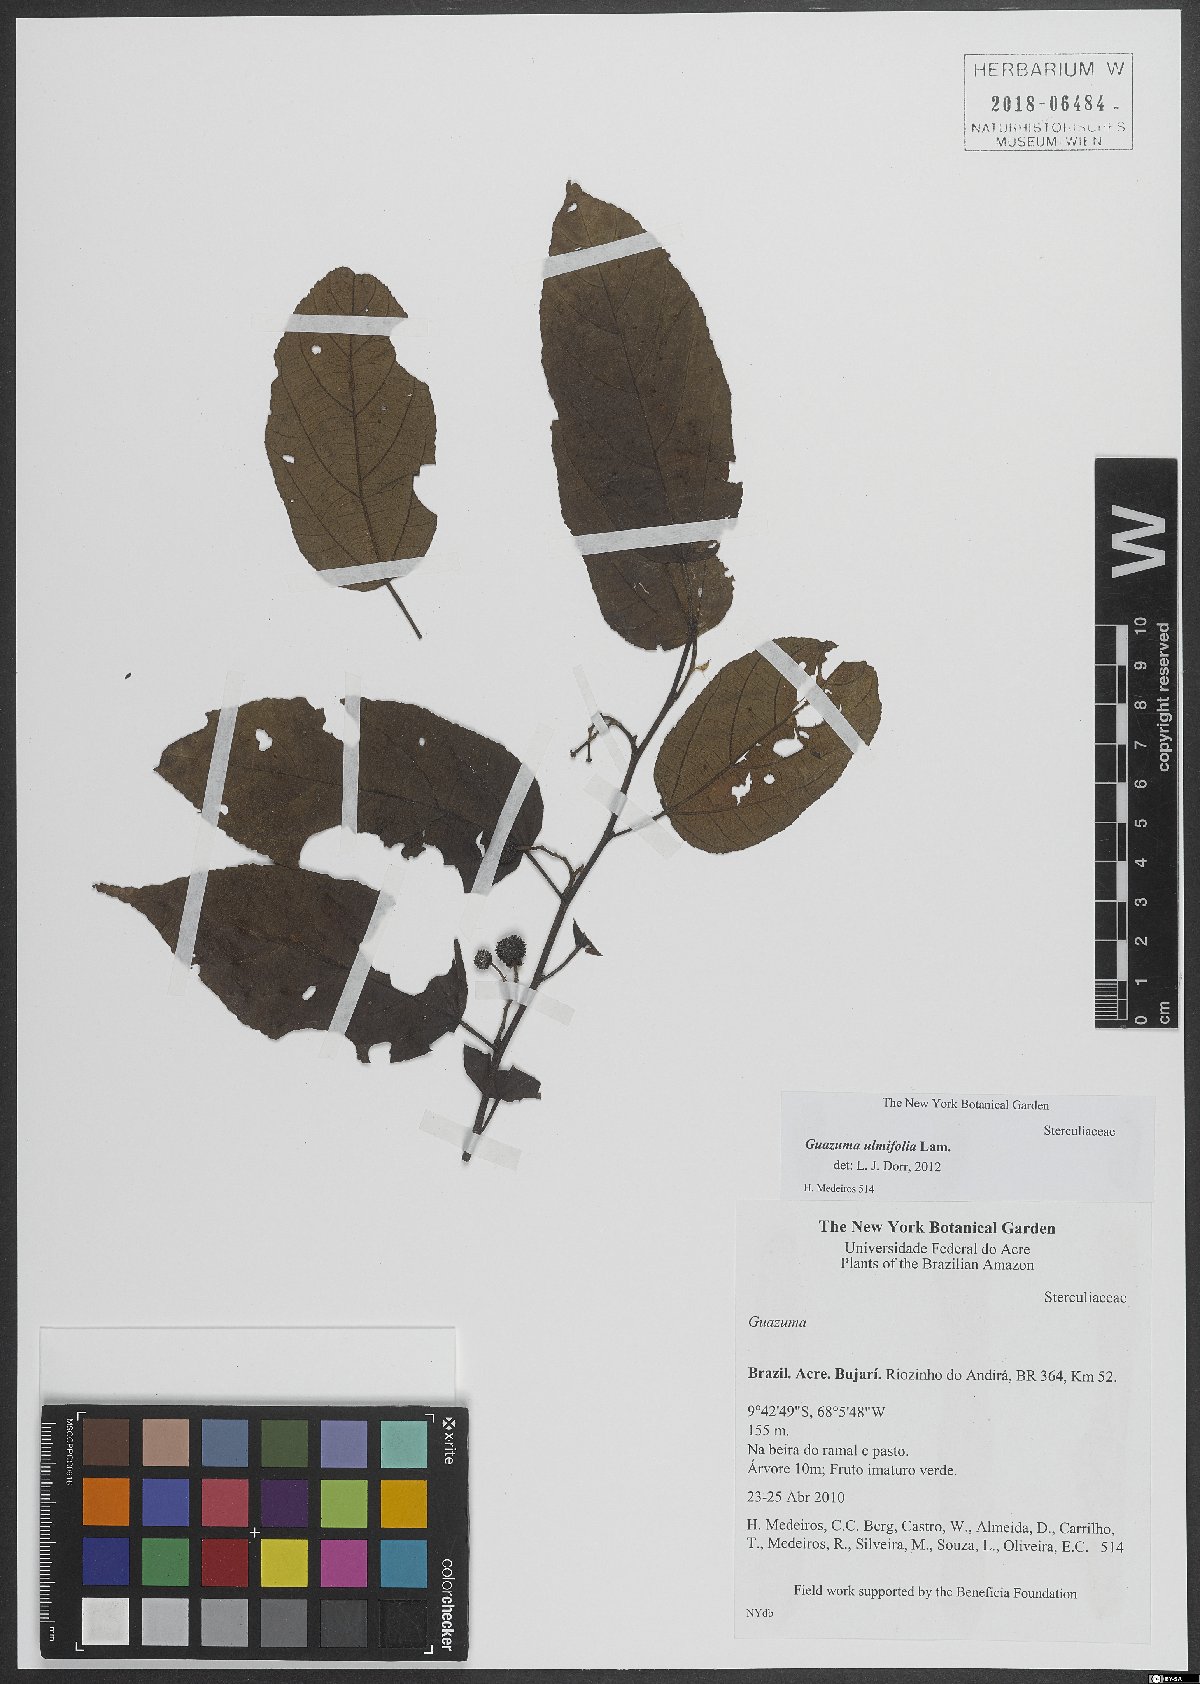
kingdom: Plantae
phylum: Tracheophyta
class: Magnoliopsida
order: Malvales
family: Malvaceae
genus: Guazuma
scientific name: Guazuma ulmifolia
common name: Bastard-cedar
